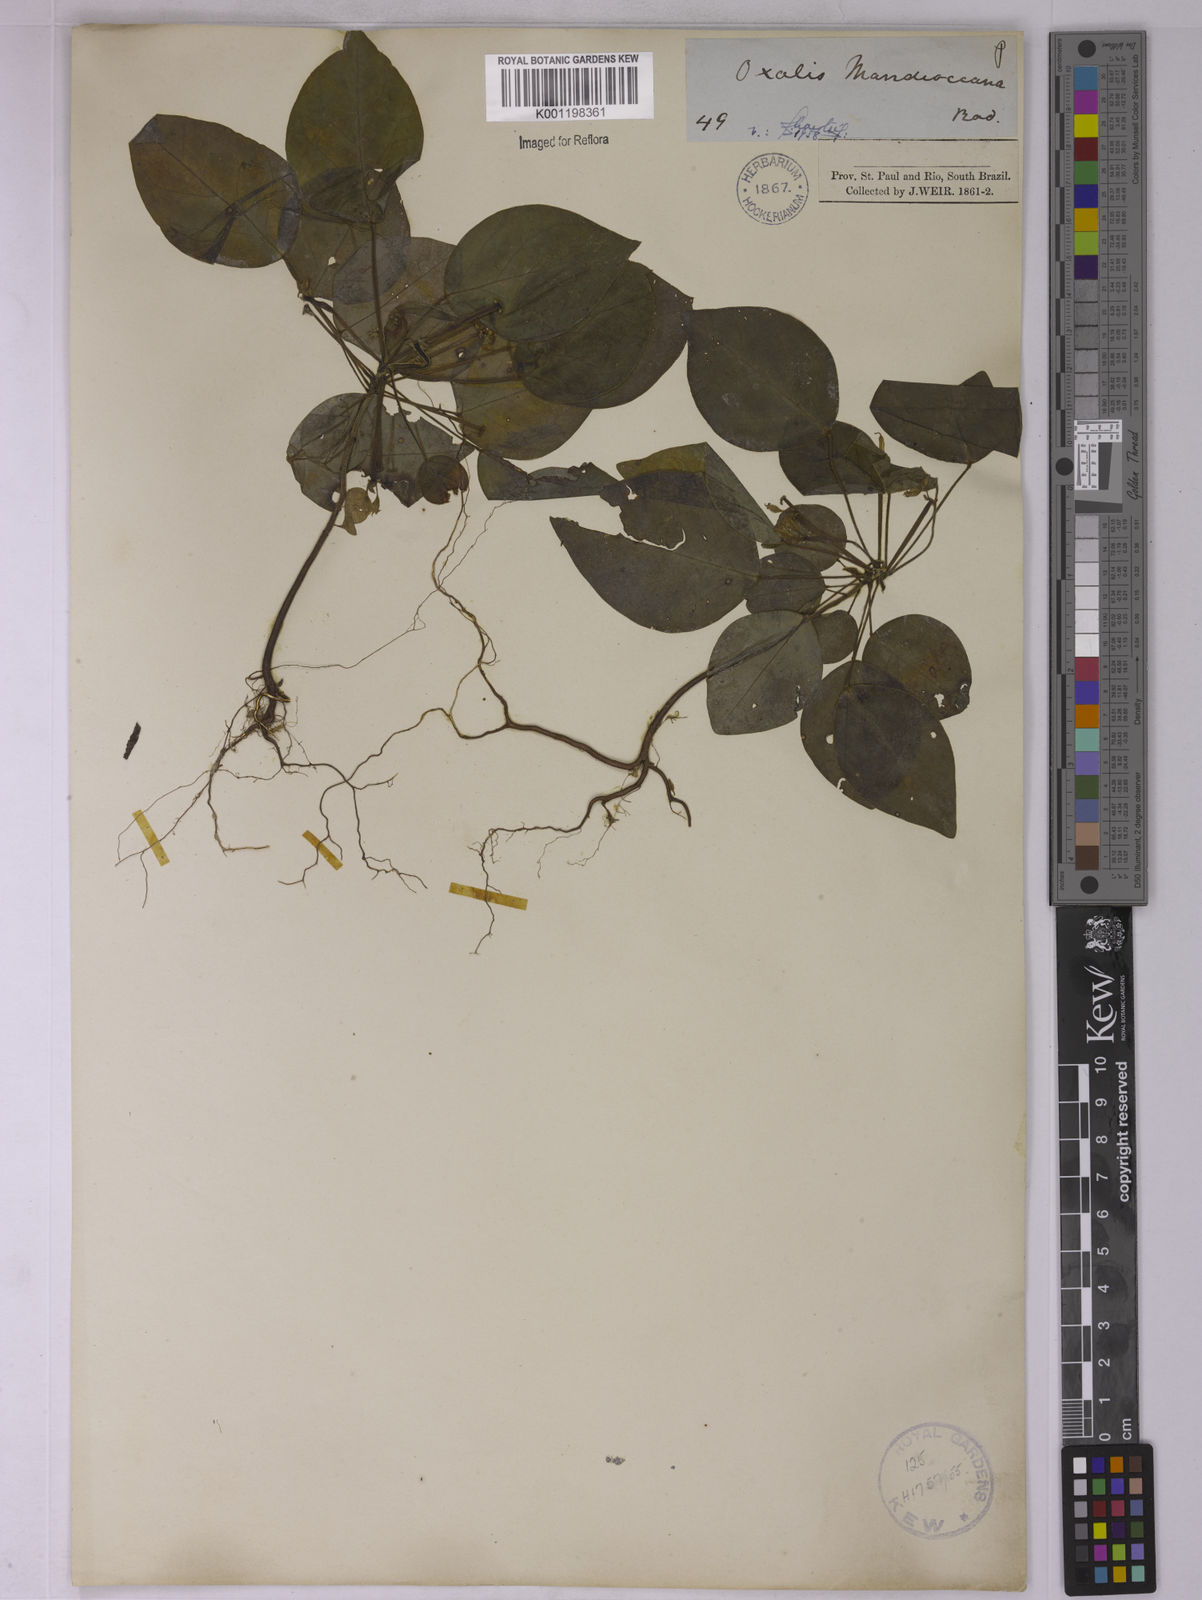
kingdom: Plantae
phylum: Tracheophyta
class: Magnoliopsida
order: Oxalidales
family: Oxalidaceae
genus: Oxalis
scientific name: Oxalis mandioccana
